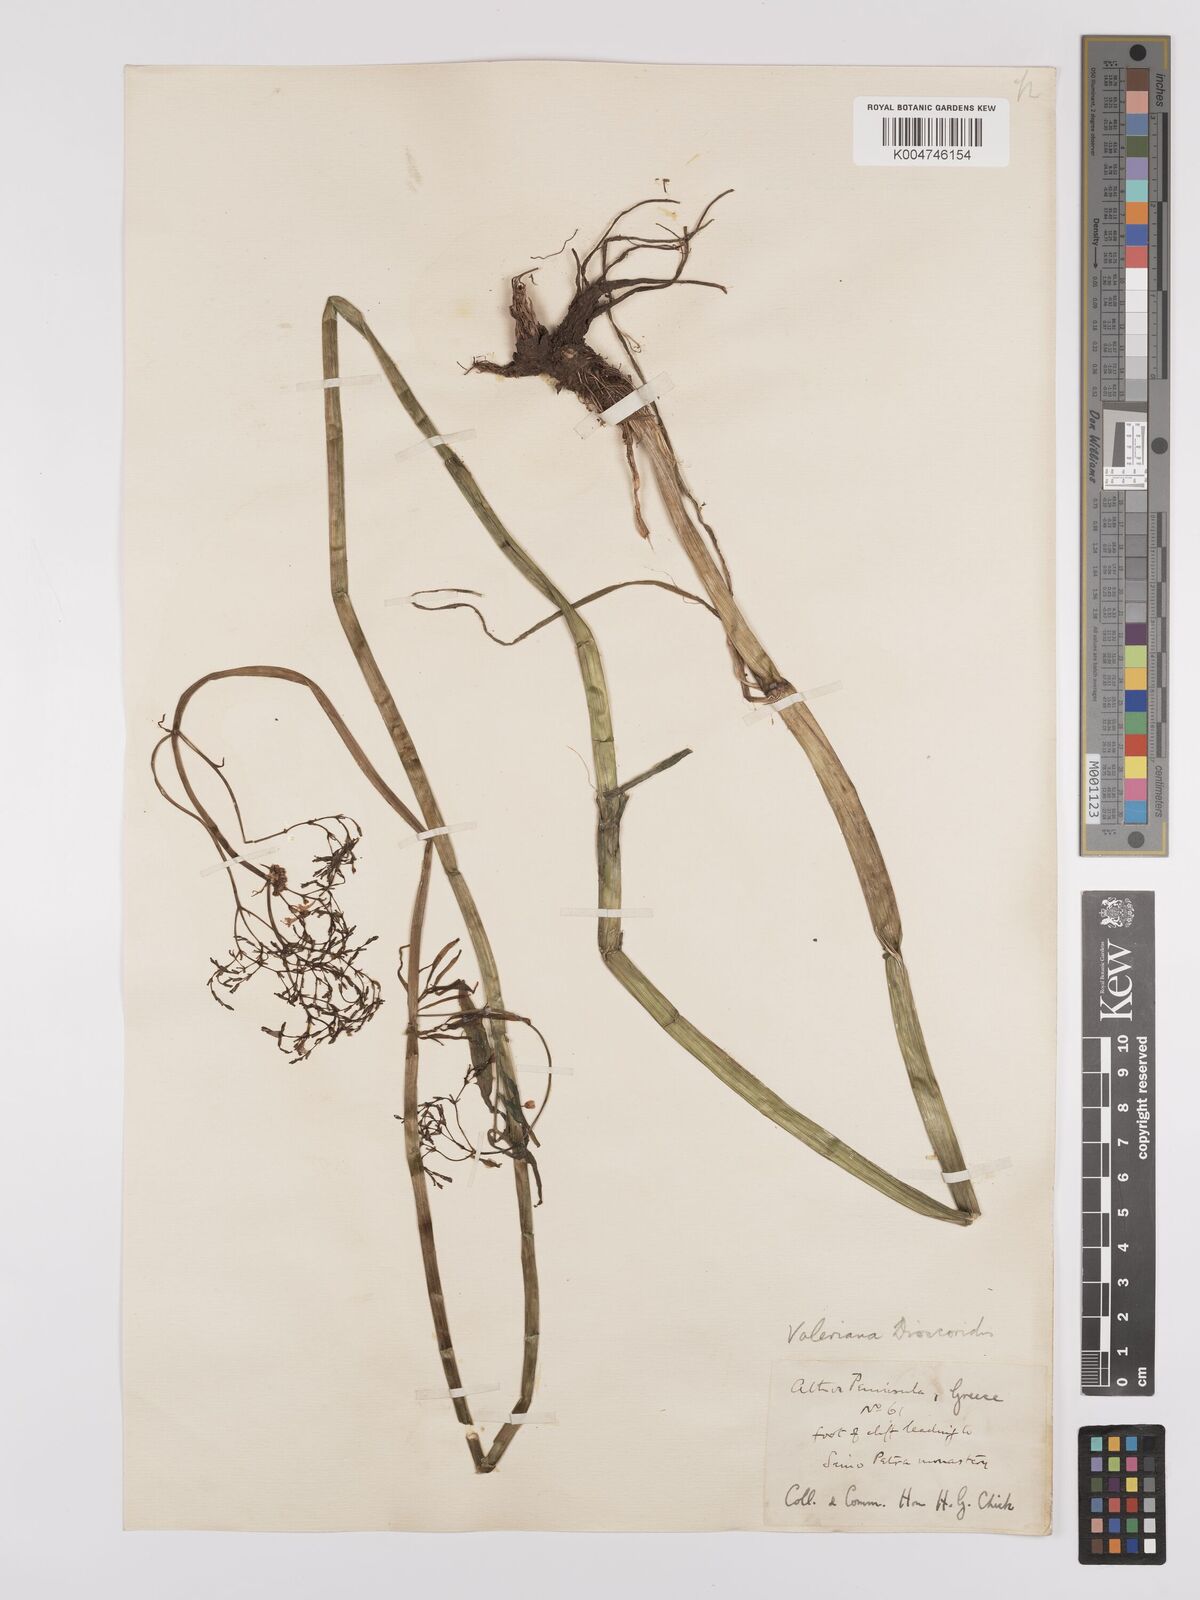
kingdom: Plantae
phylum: Tracheophyta
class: Magnoliopsida
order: Dipsacales
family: Caprifoliaceae
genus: Valeriana
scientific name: Valeriana dioscoridis
